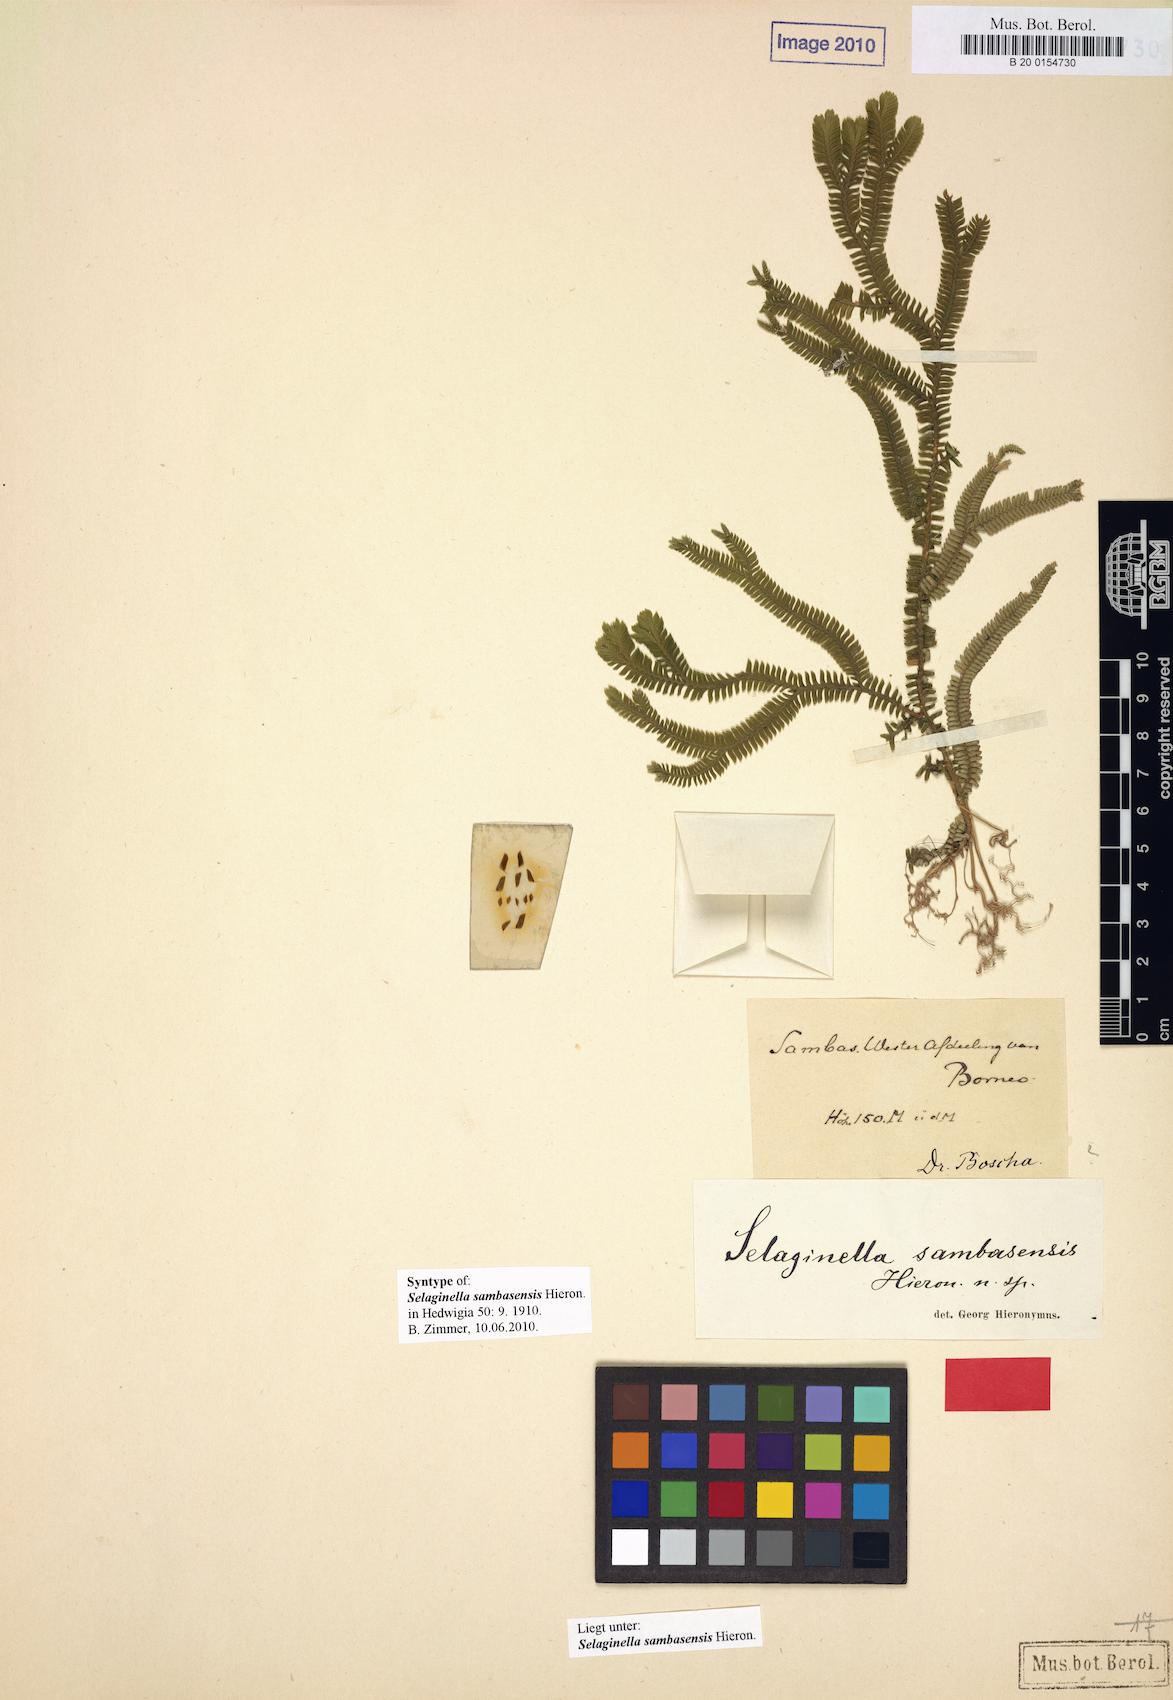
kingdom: Plantae
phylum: Tracheophyta
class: Lycopodiopsida
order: Selaginellales
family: Selaginellaceae
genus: Selaginella
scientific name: Selaginella sambasensis
